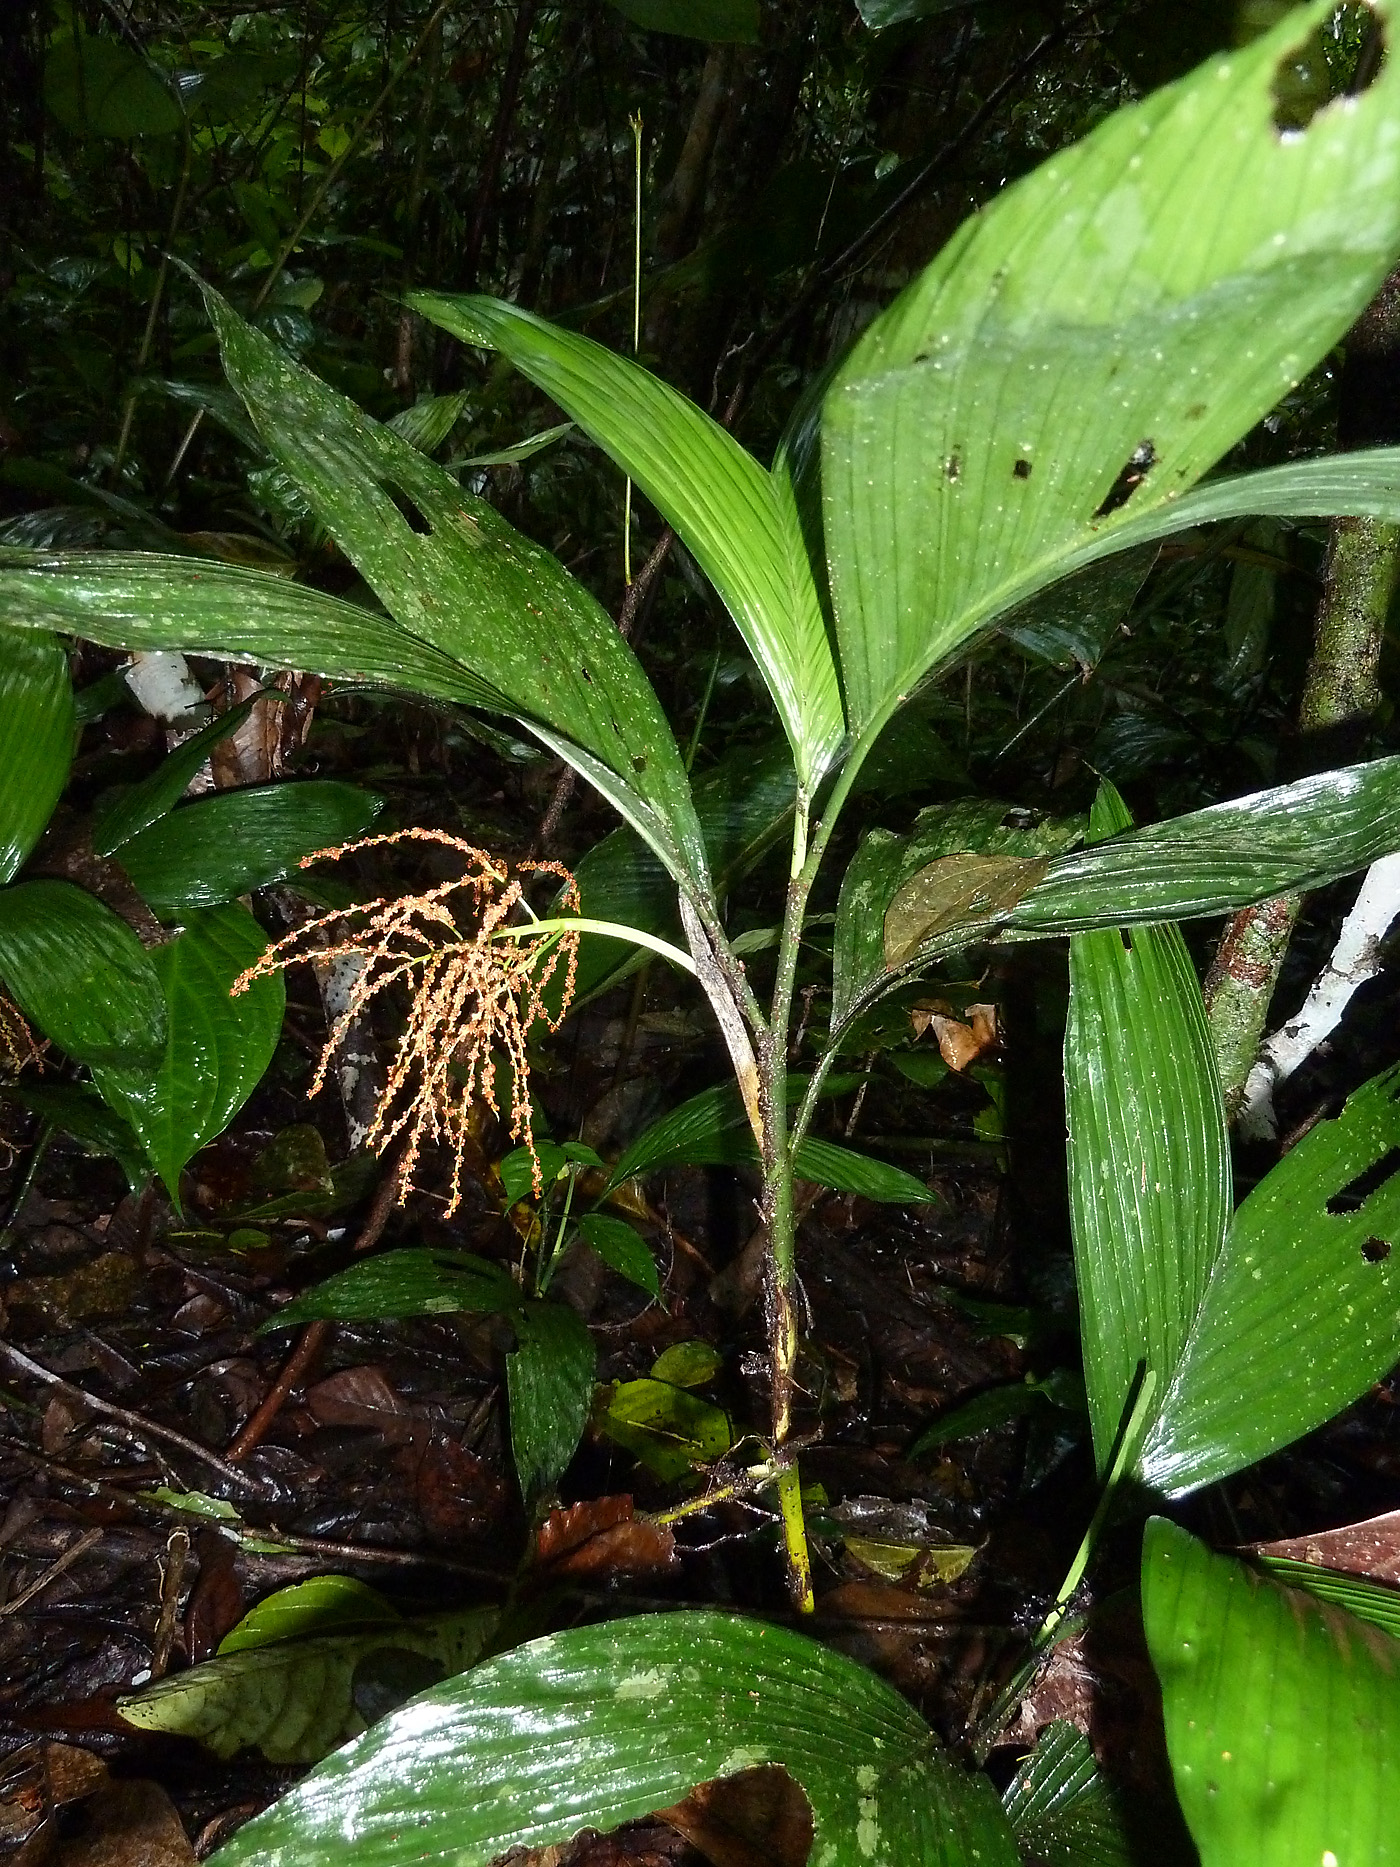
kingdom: Plantae
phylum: Tracheophyta
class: Liliopsida
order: Arecales
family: Arecaceae
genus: Wendlandiella
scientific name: Wendlandiella gracilis
